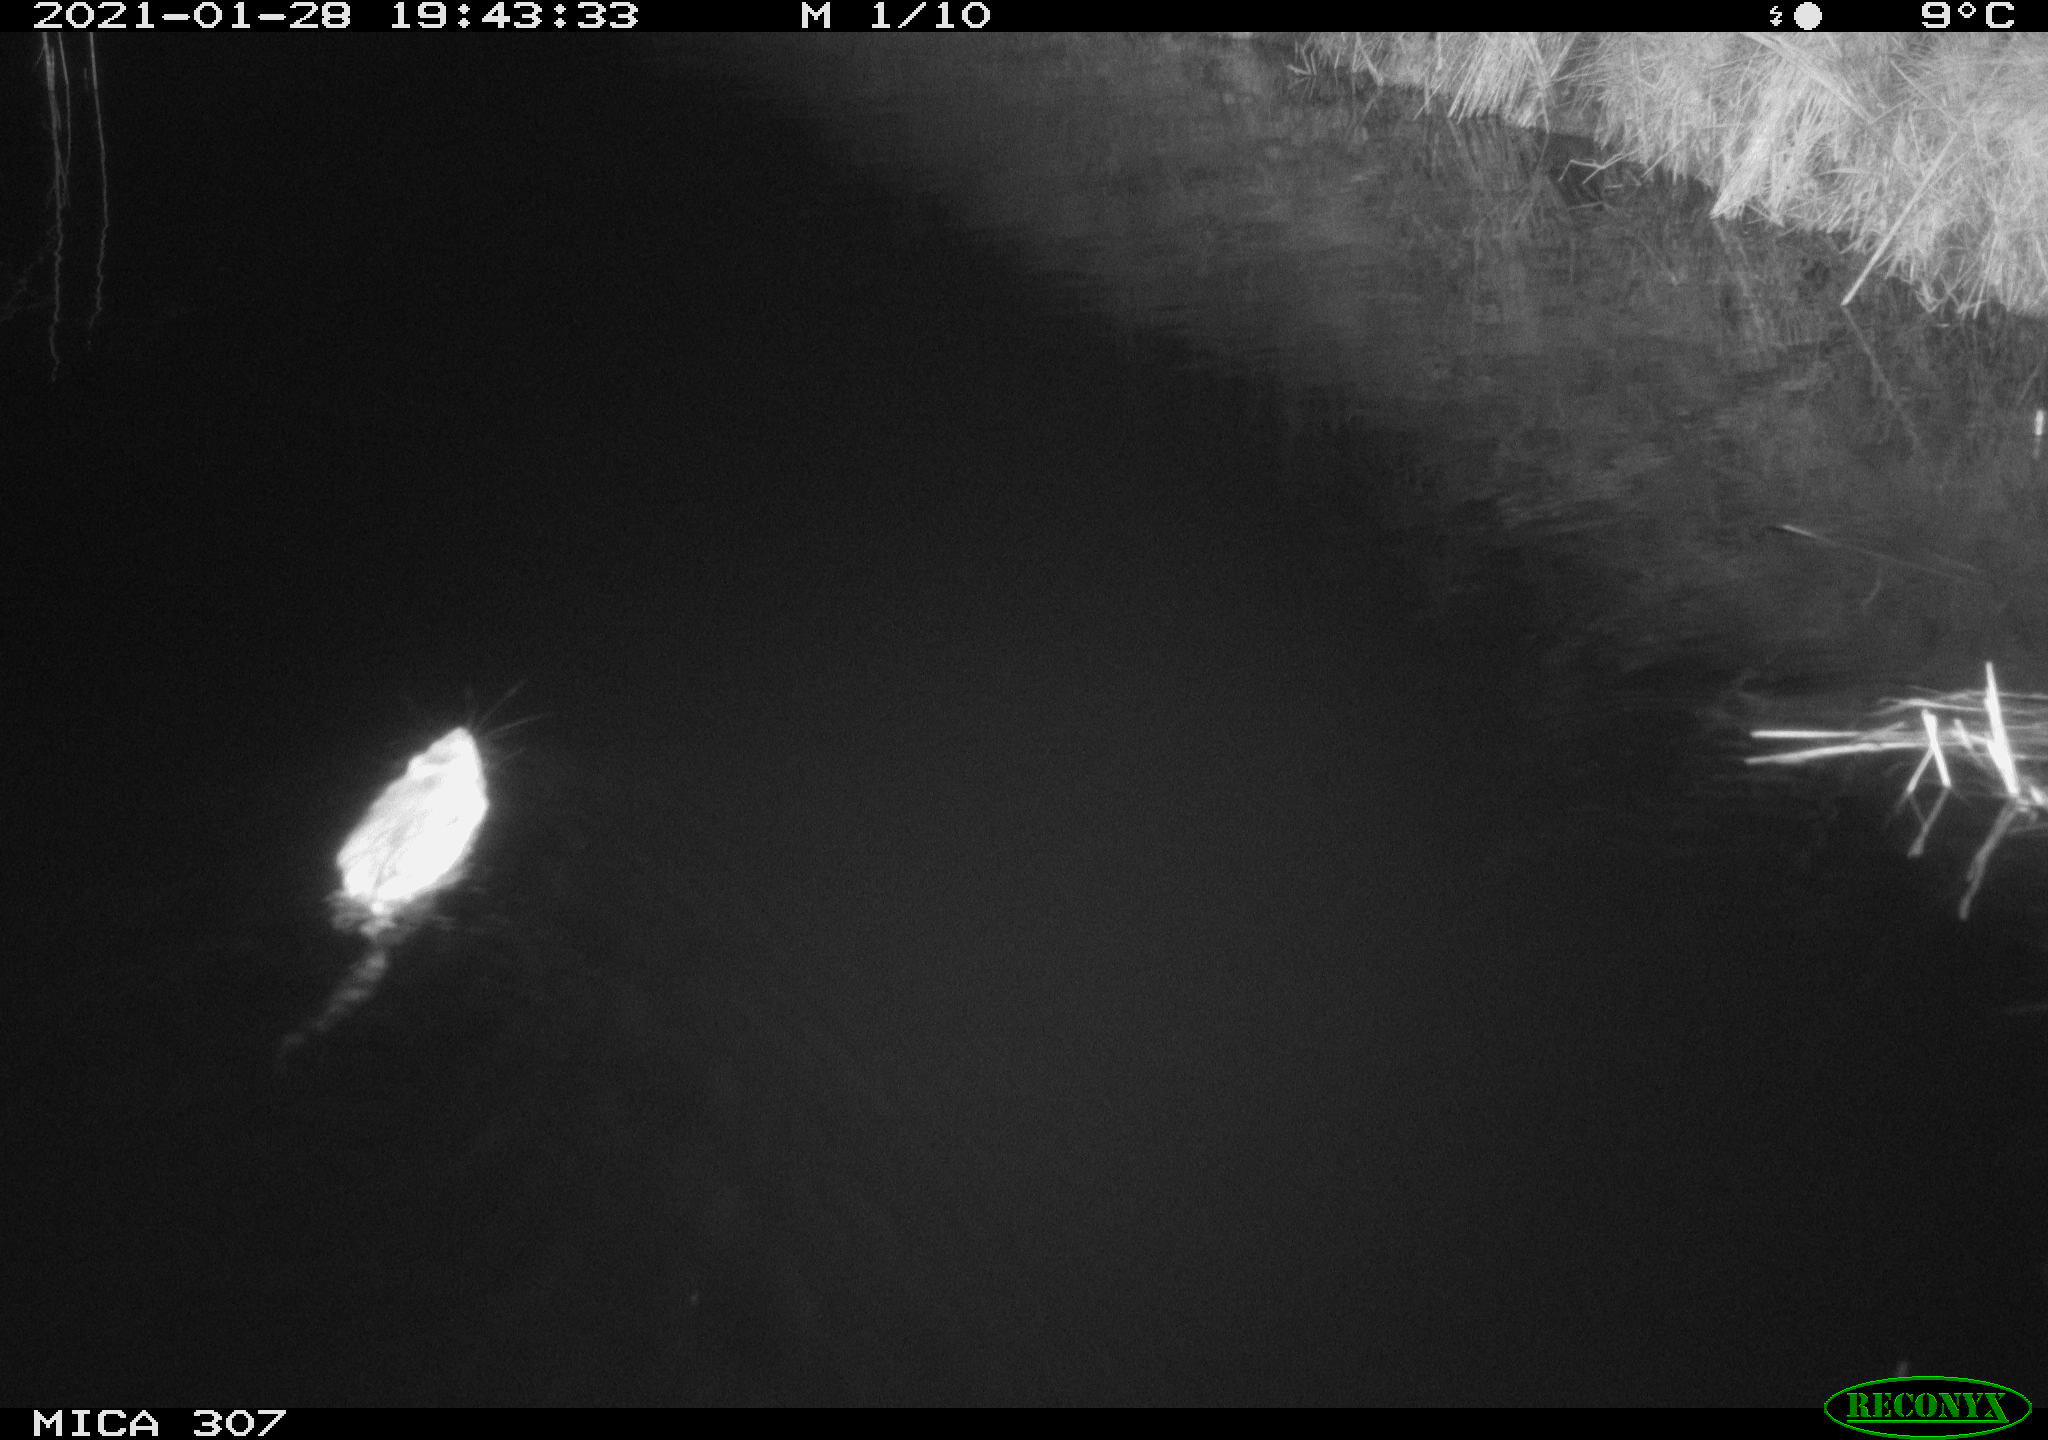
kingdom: Animalia
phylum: Chordata
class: Mammalia
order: Rodentia
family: Cricetidae
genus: Ondatra
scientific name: Ondatra zibethicus
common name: Muskrat
